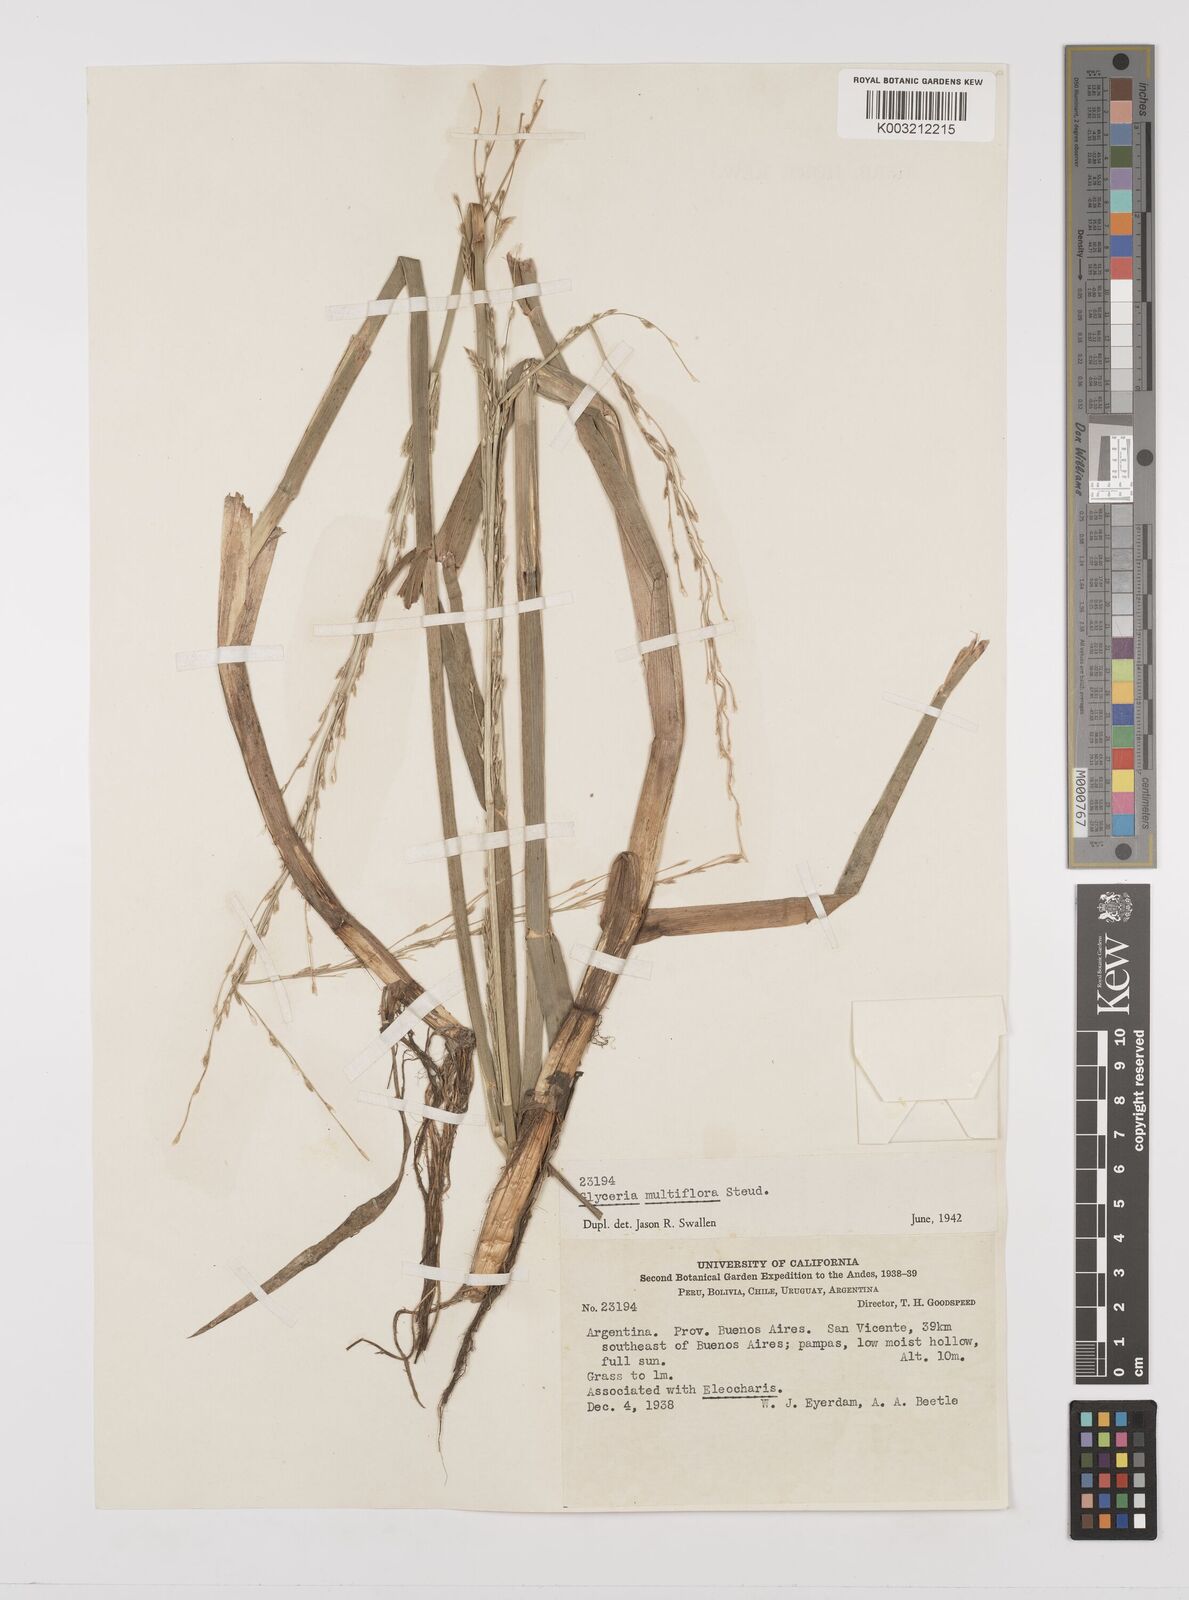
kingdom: Plantae
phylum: Tracheophyta
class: Liliopsida
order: Poales
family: Poaceae
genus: Glyceria
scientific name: Glyceria multiflora
